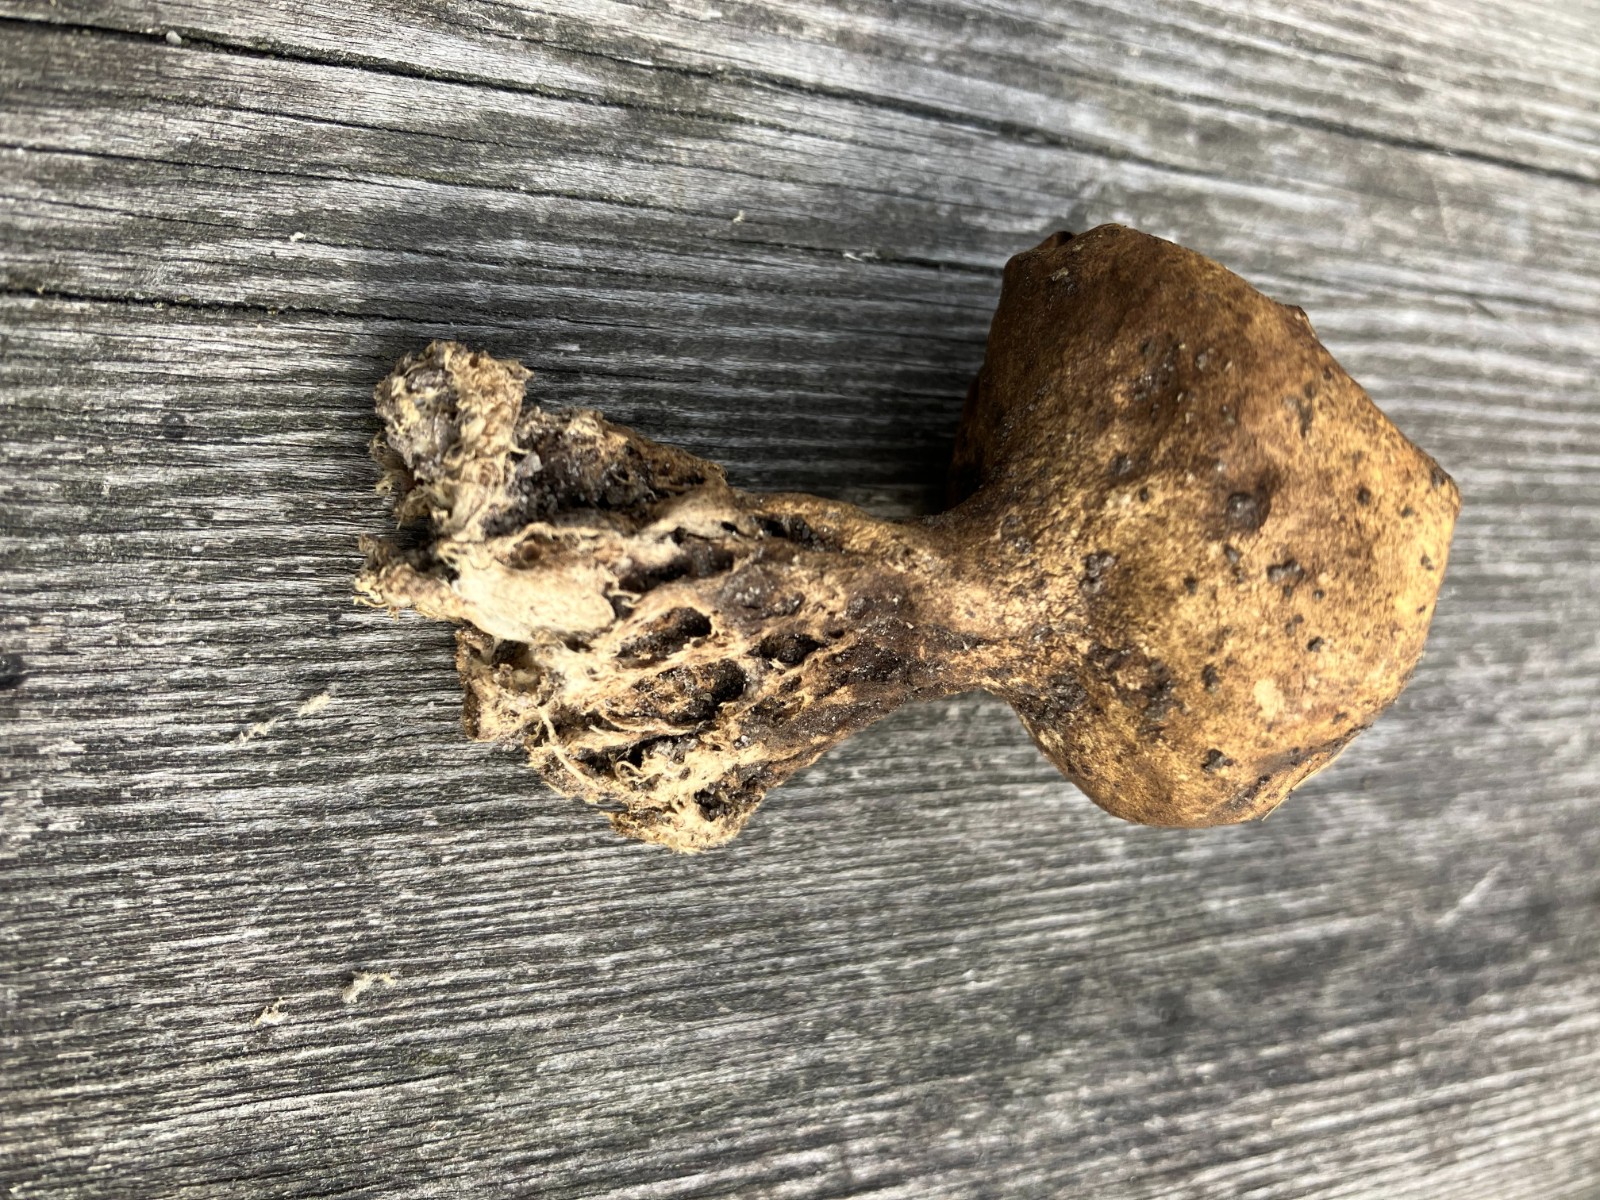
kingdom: Fungi
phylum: Basidiomycota
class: Agaricomycetes
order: Boletales
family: Sclerodermataceae
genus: Scleroderma
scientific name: Scleroderma verrucosum
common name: stilket bruskbold
